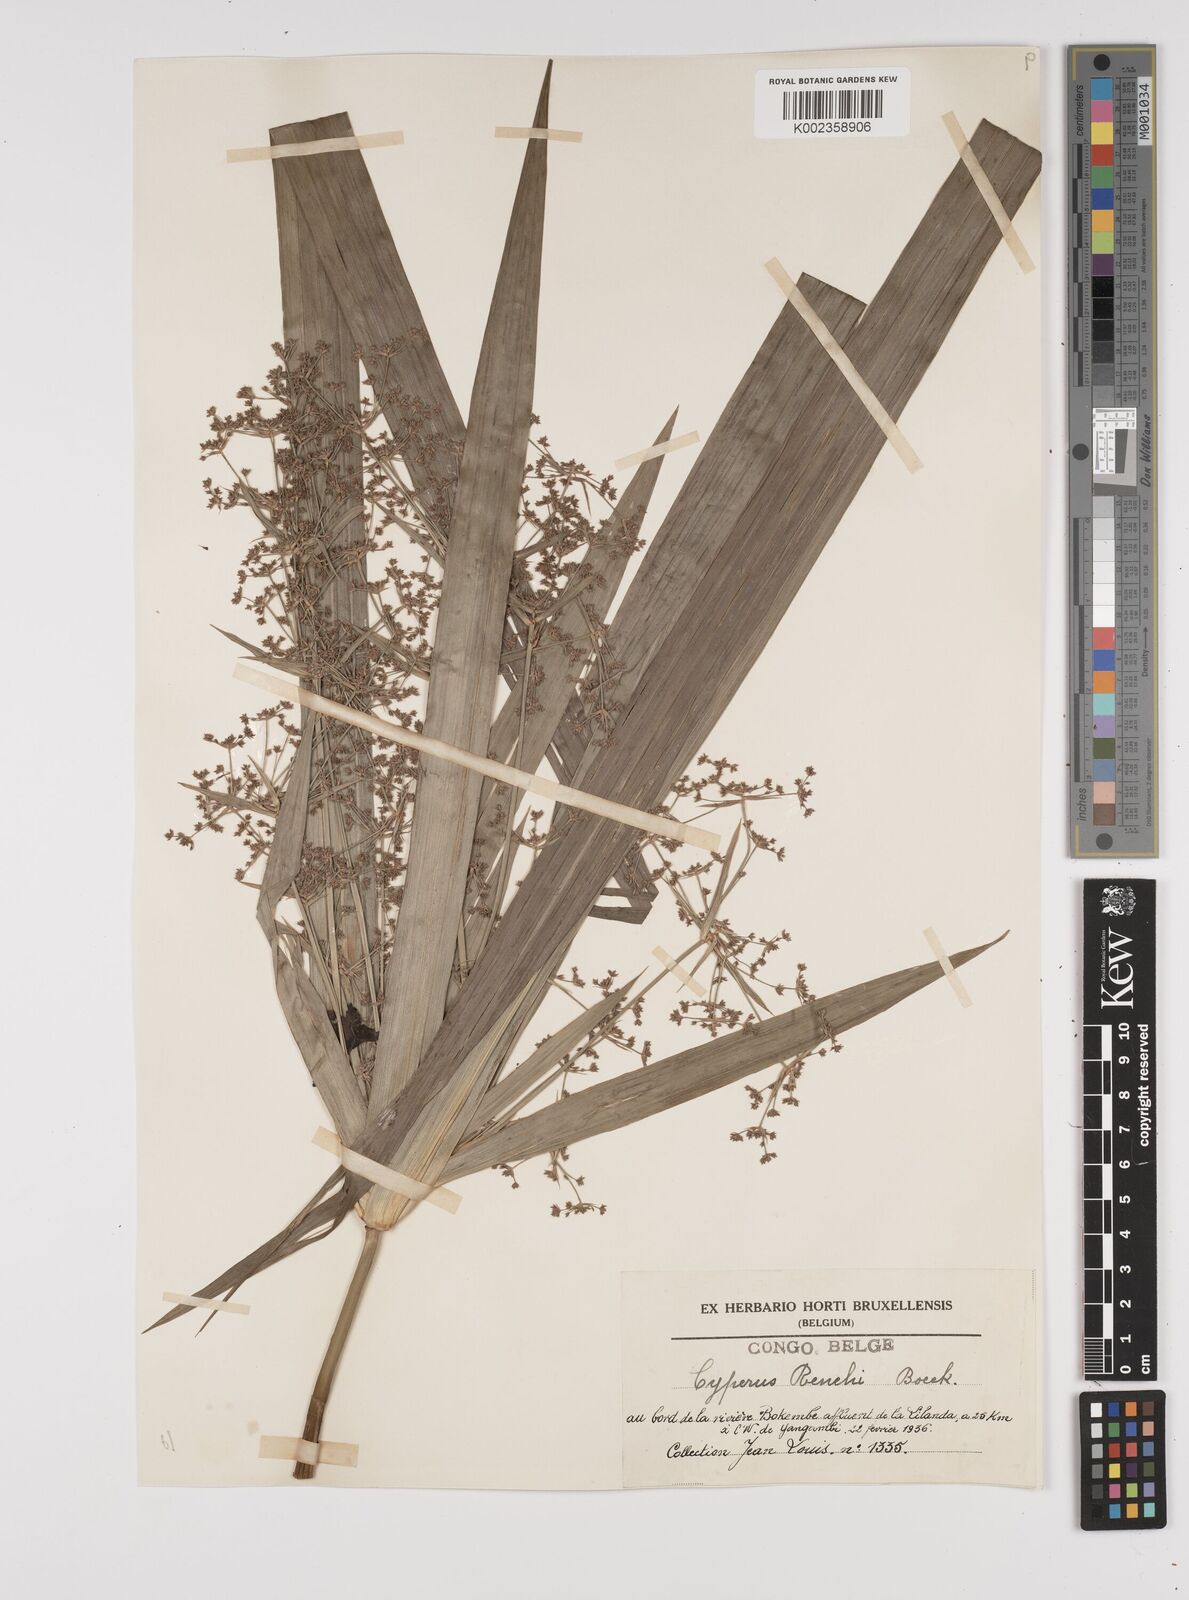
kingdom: Plantae
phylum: Tracheophyta
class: Liliopsida
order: Poales
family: Cyperaceae
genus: Cyperus
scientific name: Cyperus renschii
